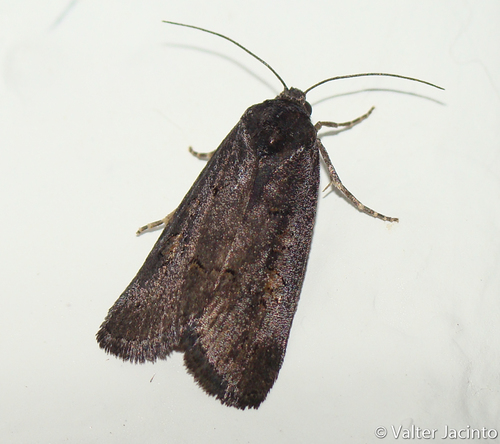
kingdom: Animalia
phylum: Arthropoda
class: Insecta
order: Lepidoptera
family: Noctuidae
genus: Stilbia
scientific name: Stilbia andalusiaca
